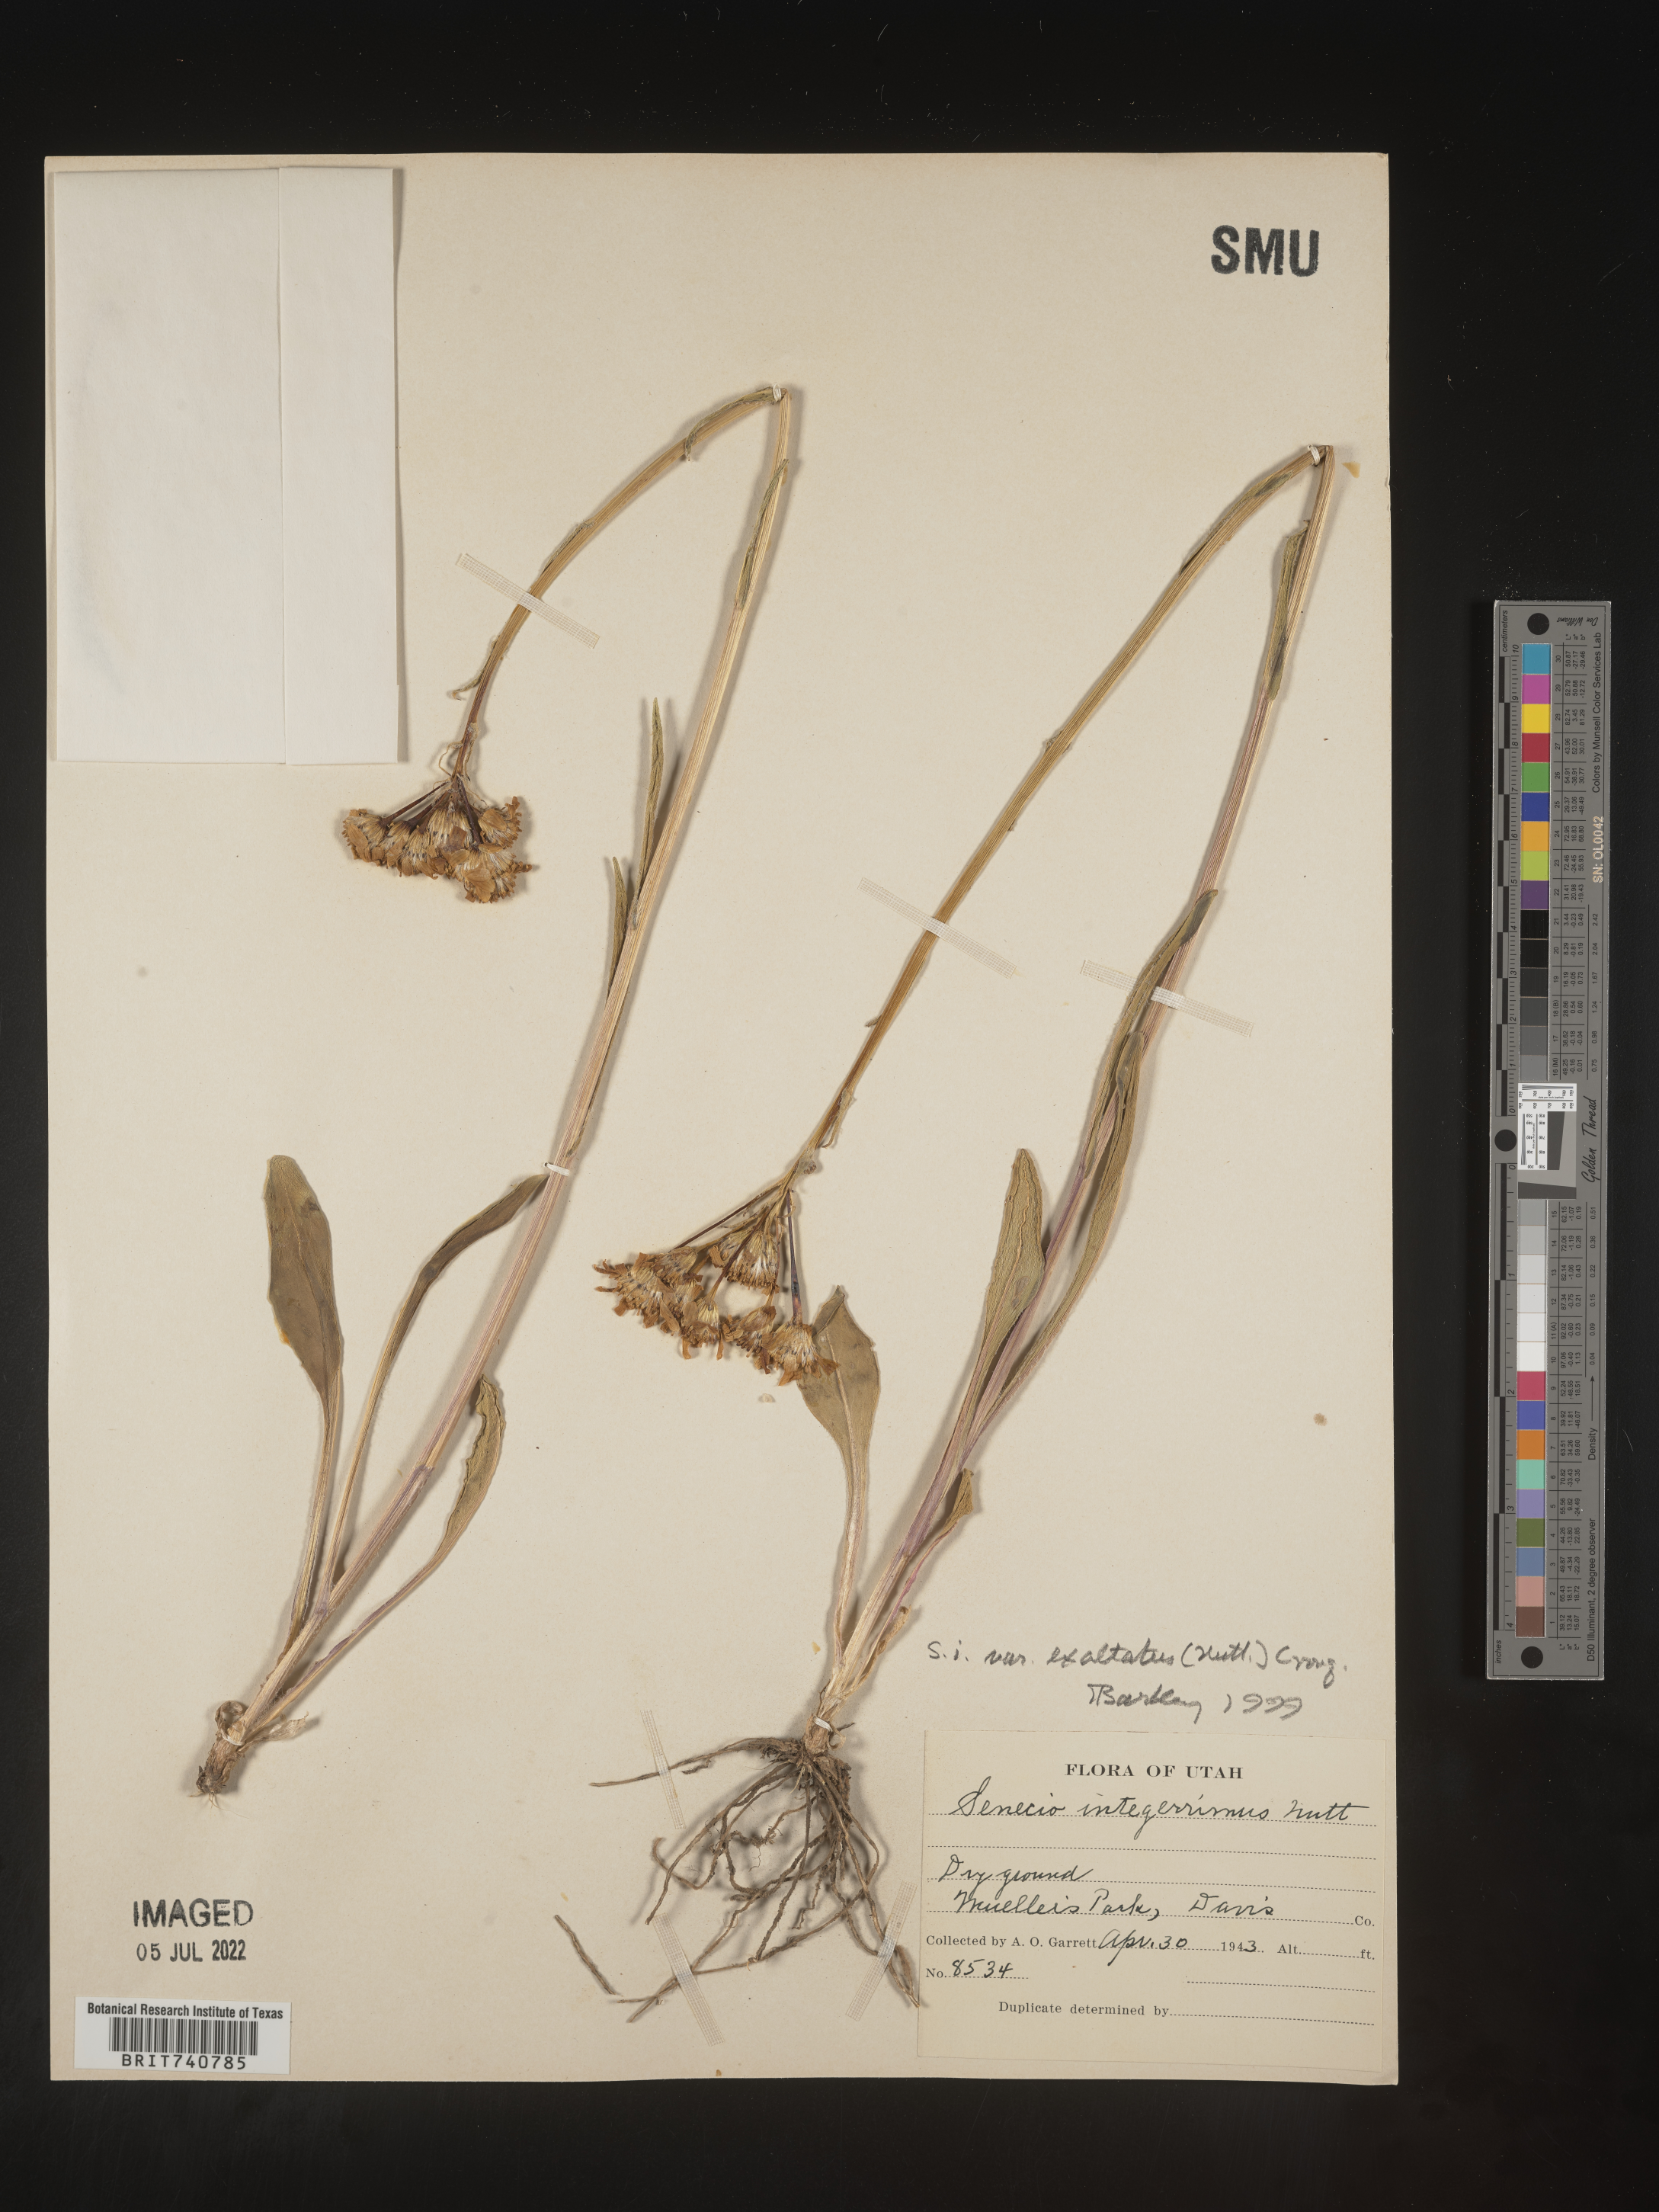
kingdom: Plantae
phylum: Tracheophyta
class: Magnoliopsida
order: Asterales
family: Asteraceae
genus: Senecio
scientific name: Senecio integerrimus
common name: Gaugeplant
